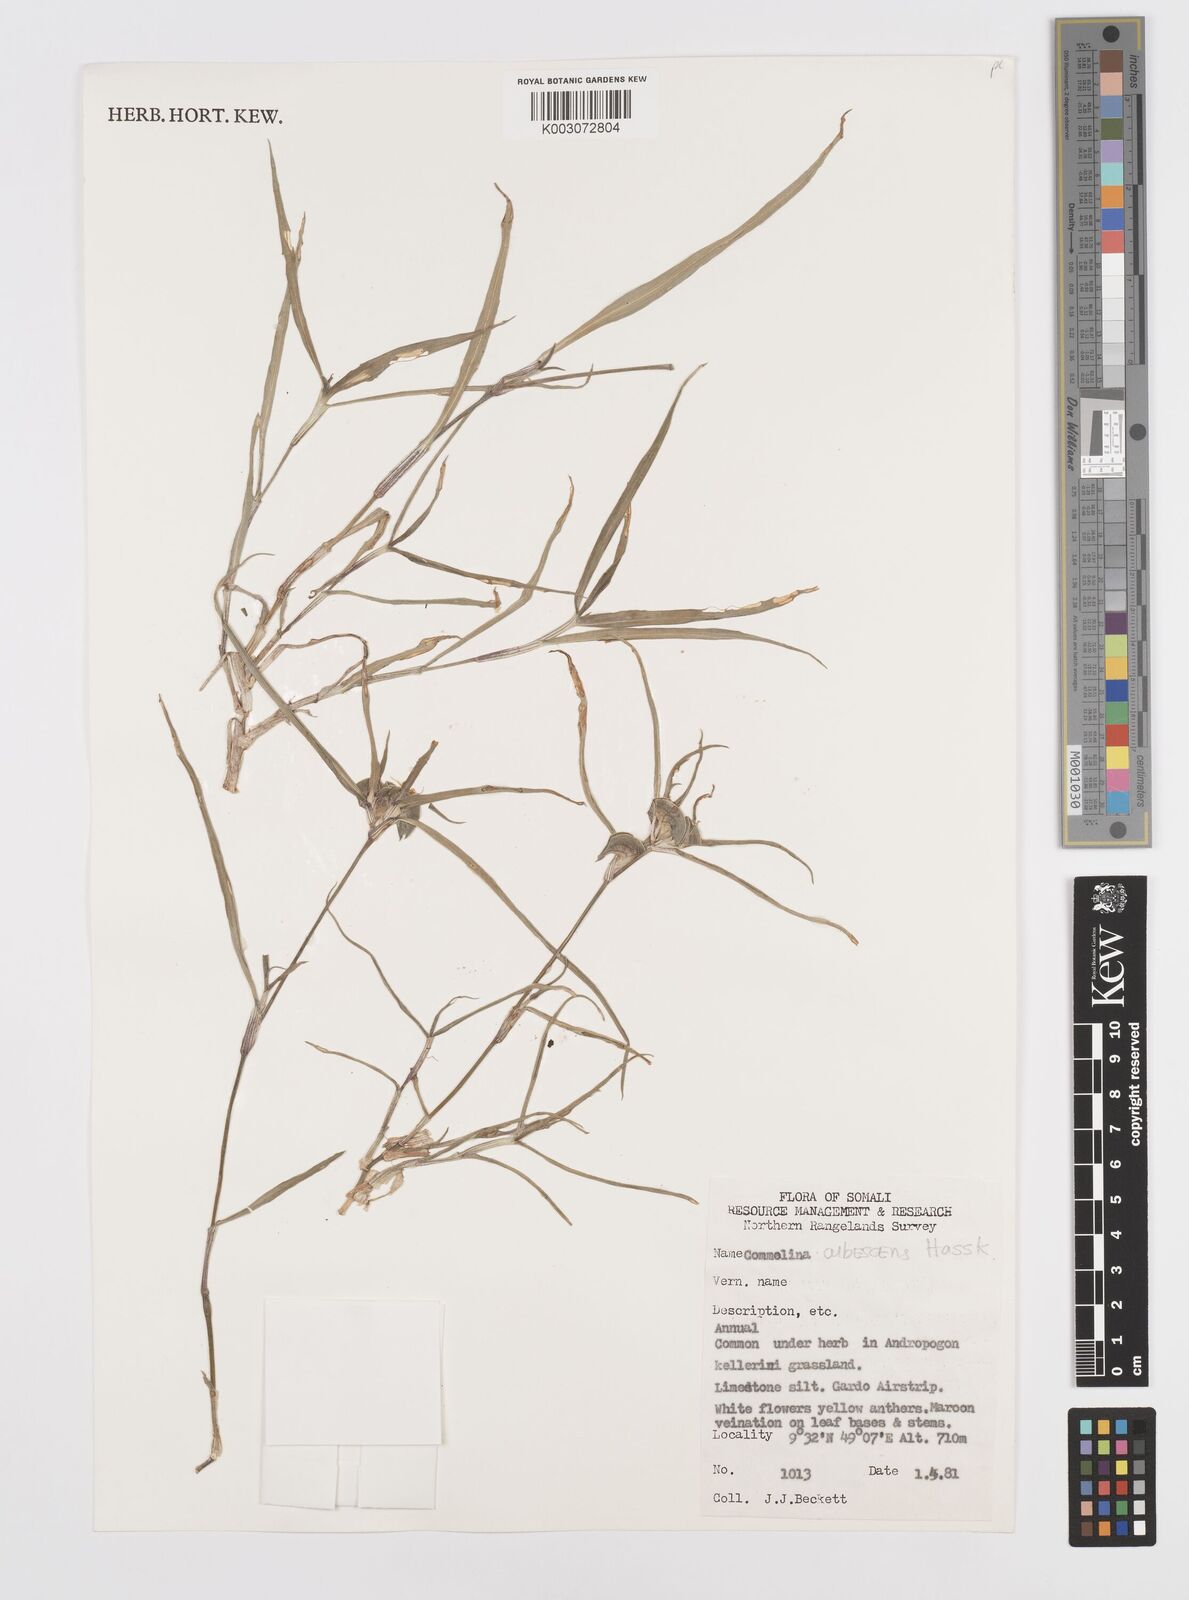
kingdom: Plantae
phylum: Tracheophyta
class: Liliopsida
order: Commelinales
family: Commelinaceae
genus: Commelina
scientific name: Commelina albescens
